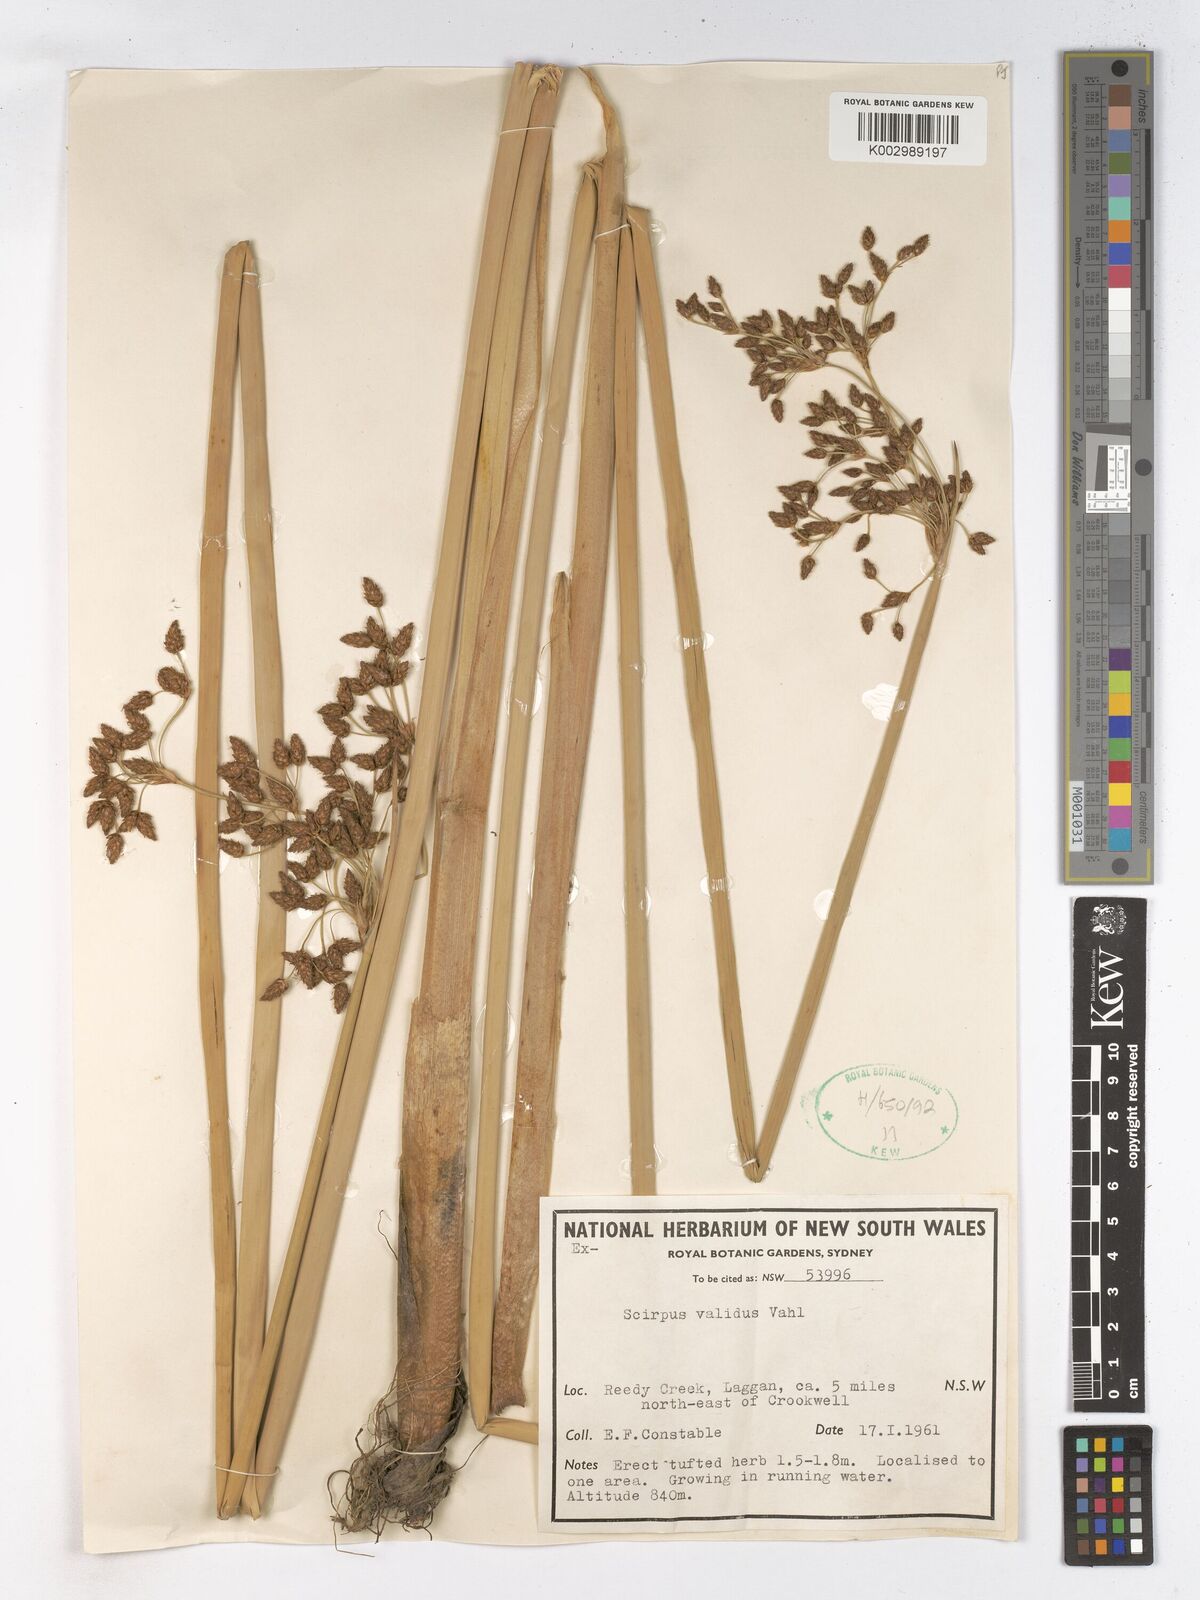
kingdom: Plantae
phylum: Tracheophyta
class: Liliopsida
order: Poales
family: Cyperaceae
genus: Schoenoplectus
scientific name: Schoenoplectus lacustris
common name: Common club-rush
